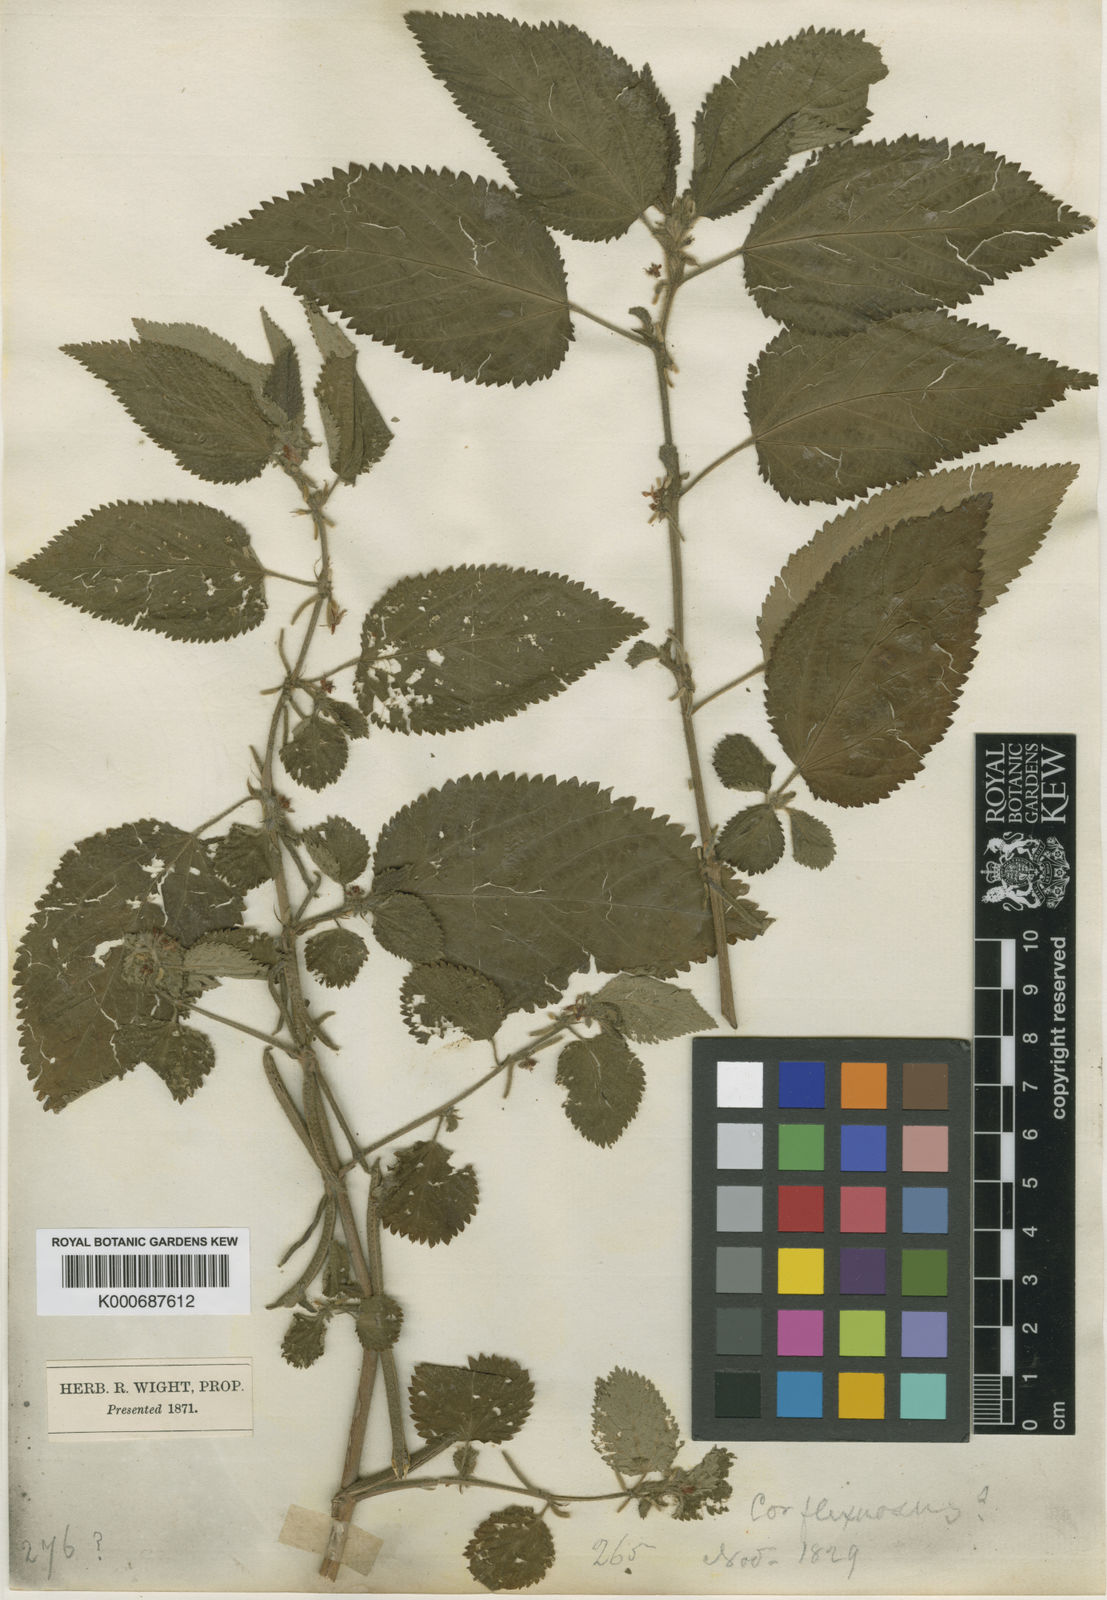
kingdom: Plantae
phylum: Tracheophyta
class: Magnoliopsida
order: Malvales
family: Malvaceae
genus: Corchorus
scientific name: Corchorus urticifolius
